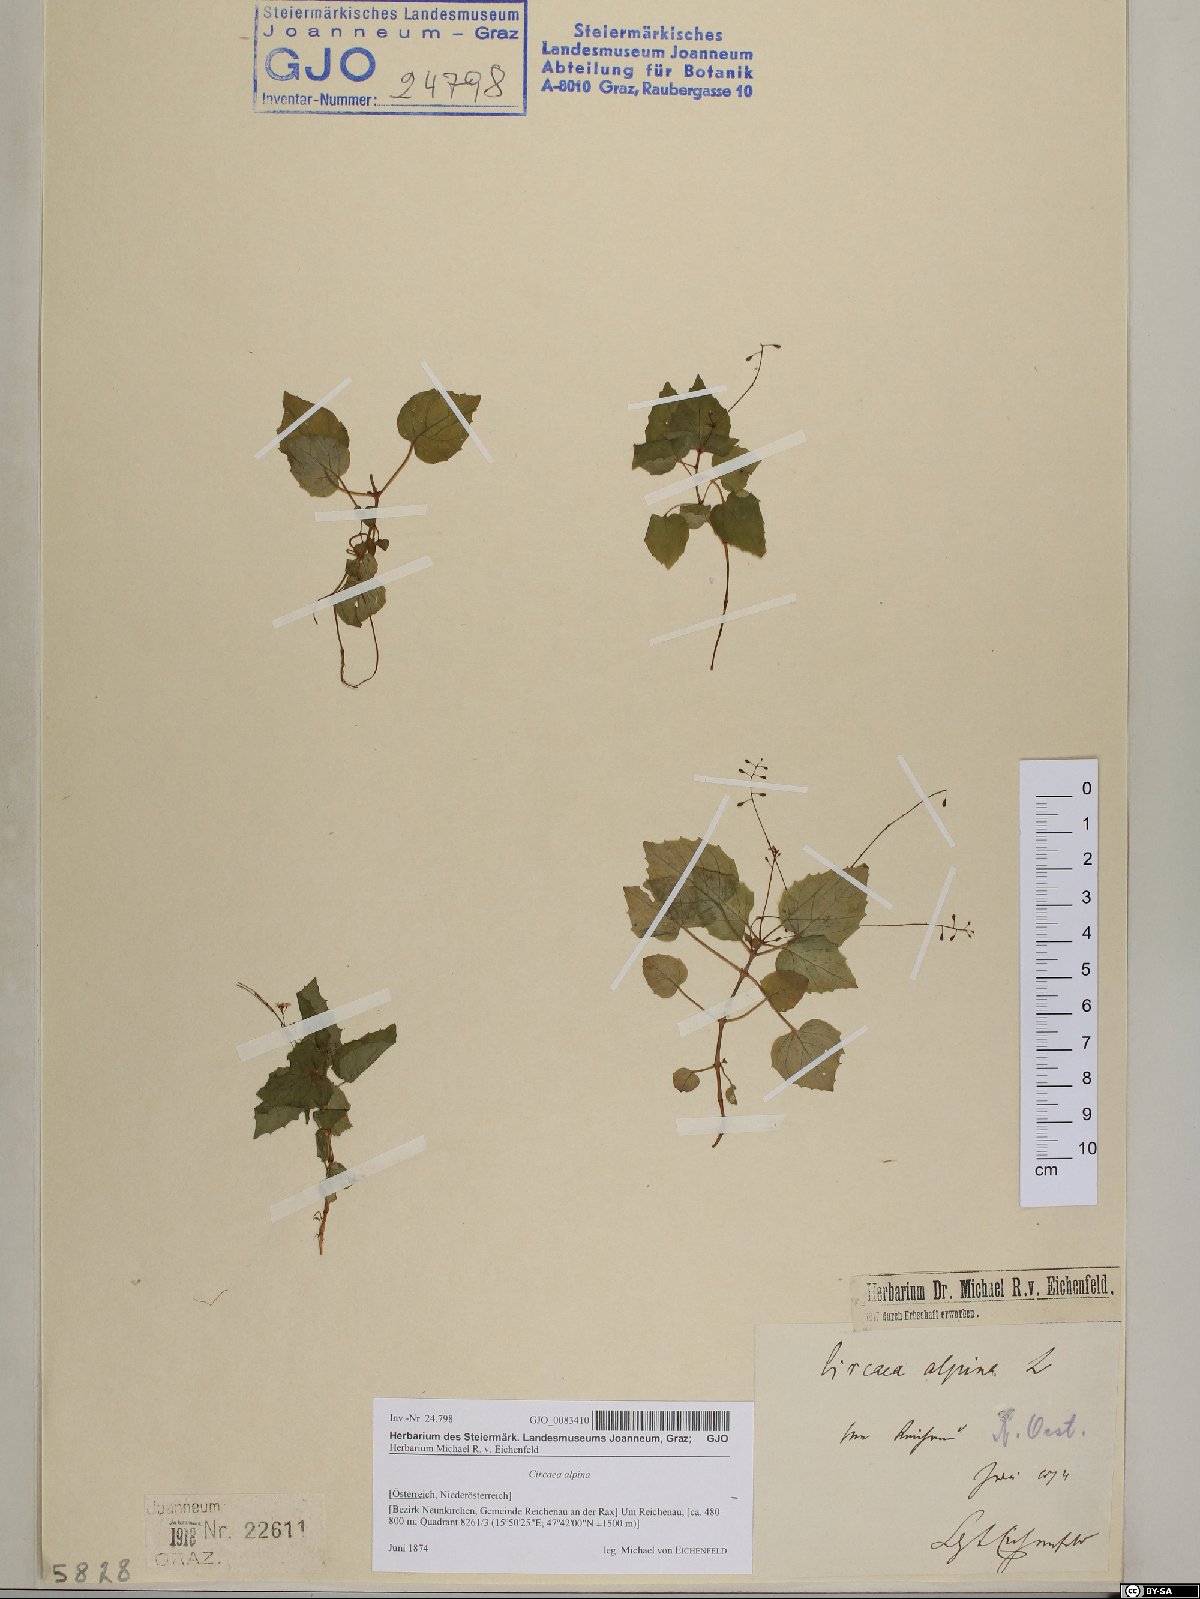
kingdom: Plantae
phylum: Tracheophyta
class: Magnoliopsida
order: Myrtales
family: Onagraceae
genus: Circaea
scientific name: Circaea alpina
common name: Alpine enchanter's-nightshade
